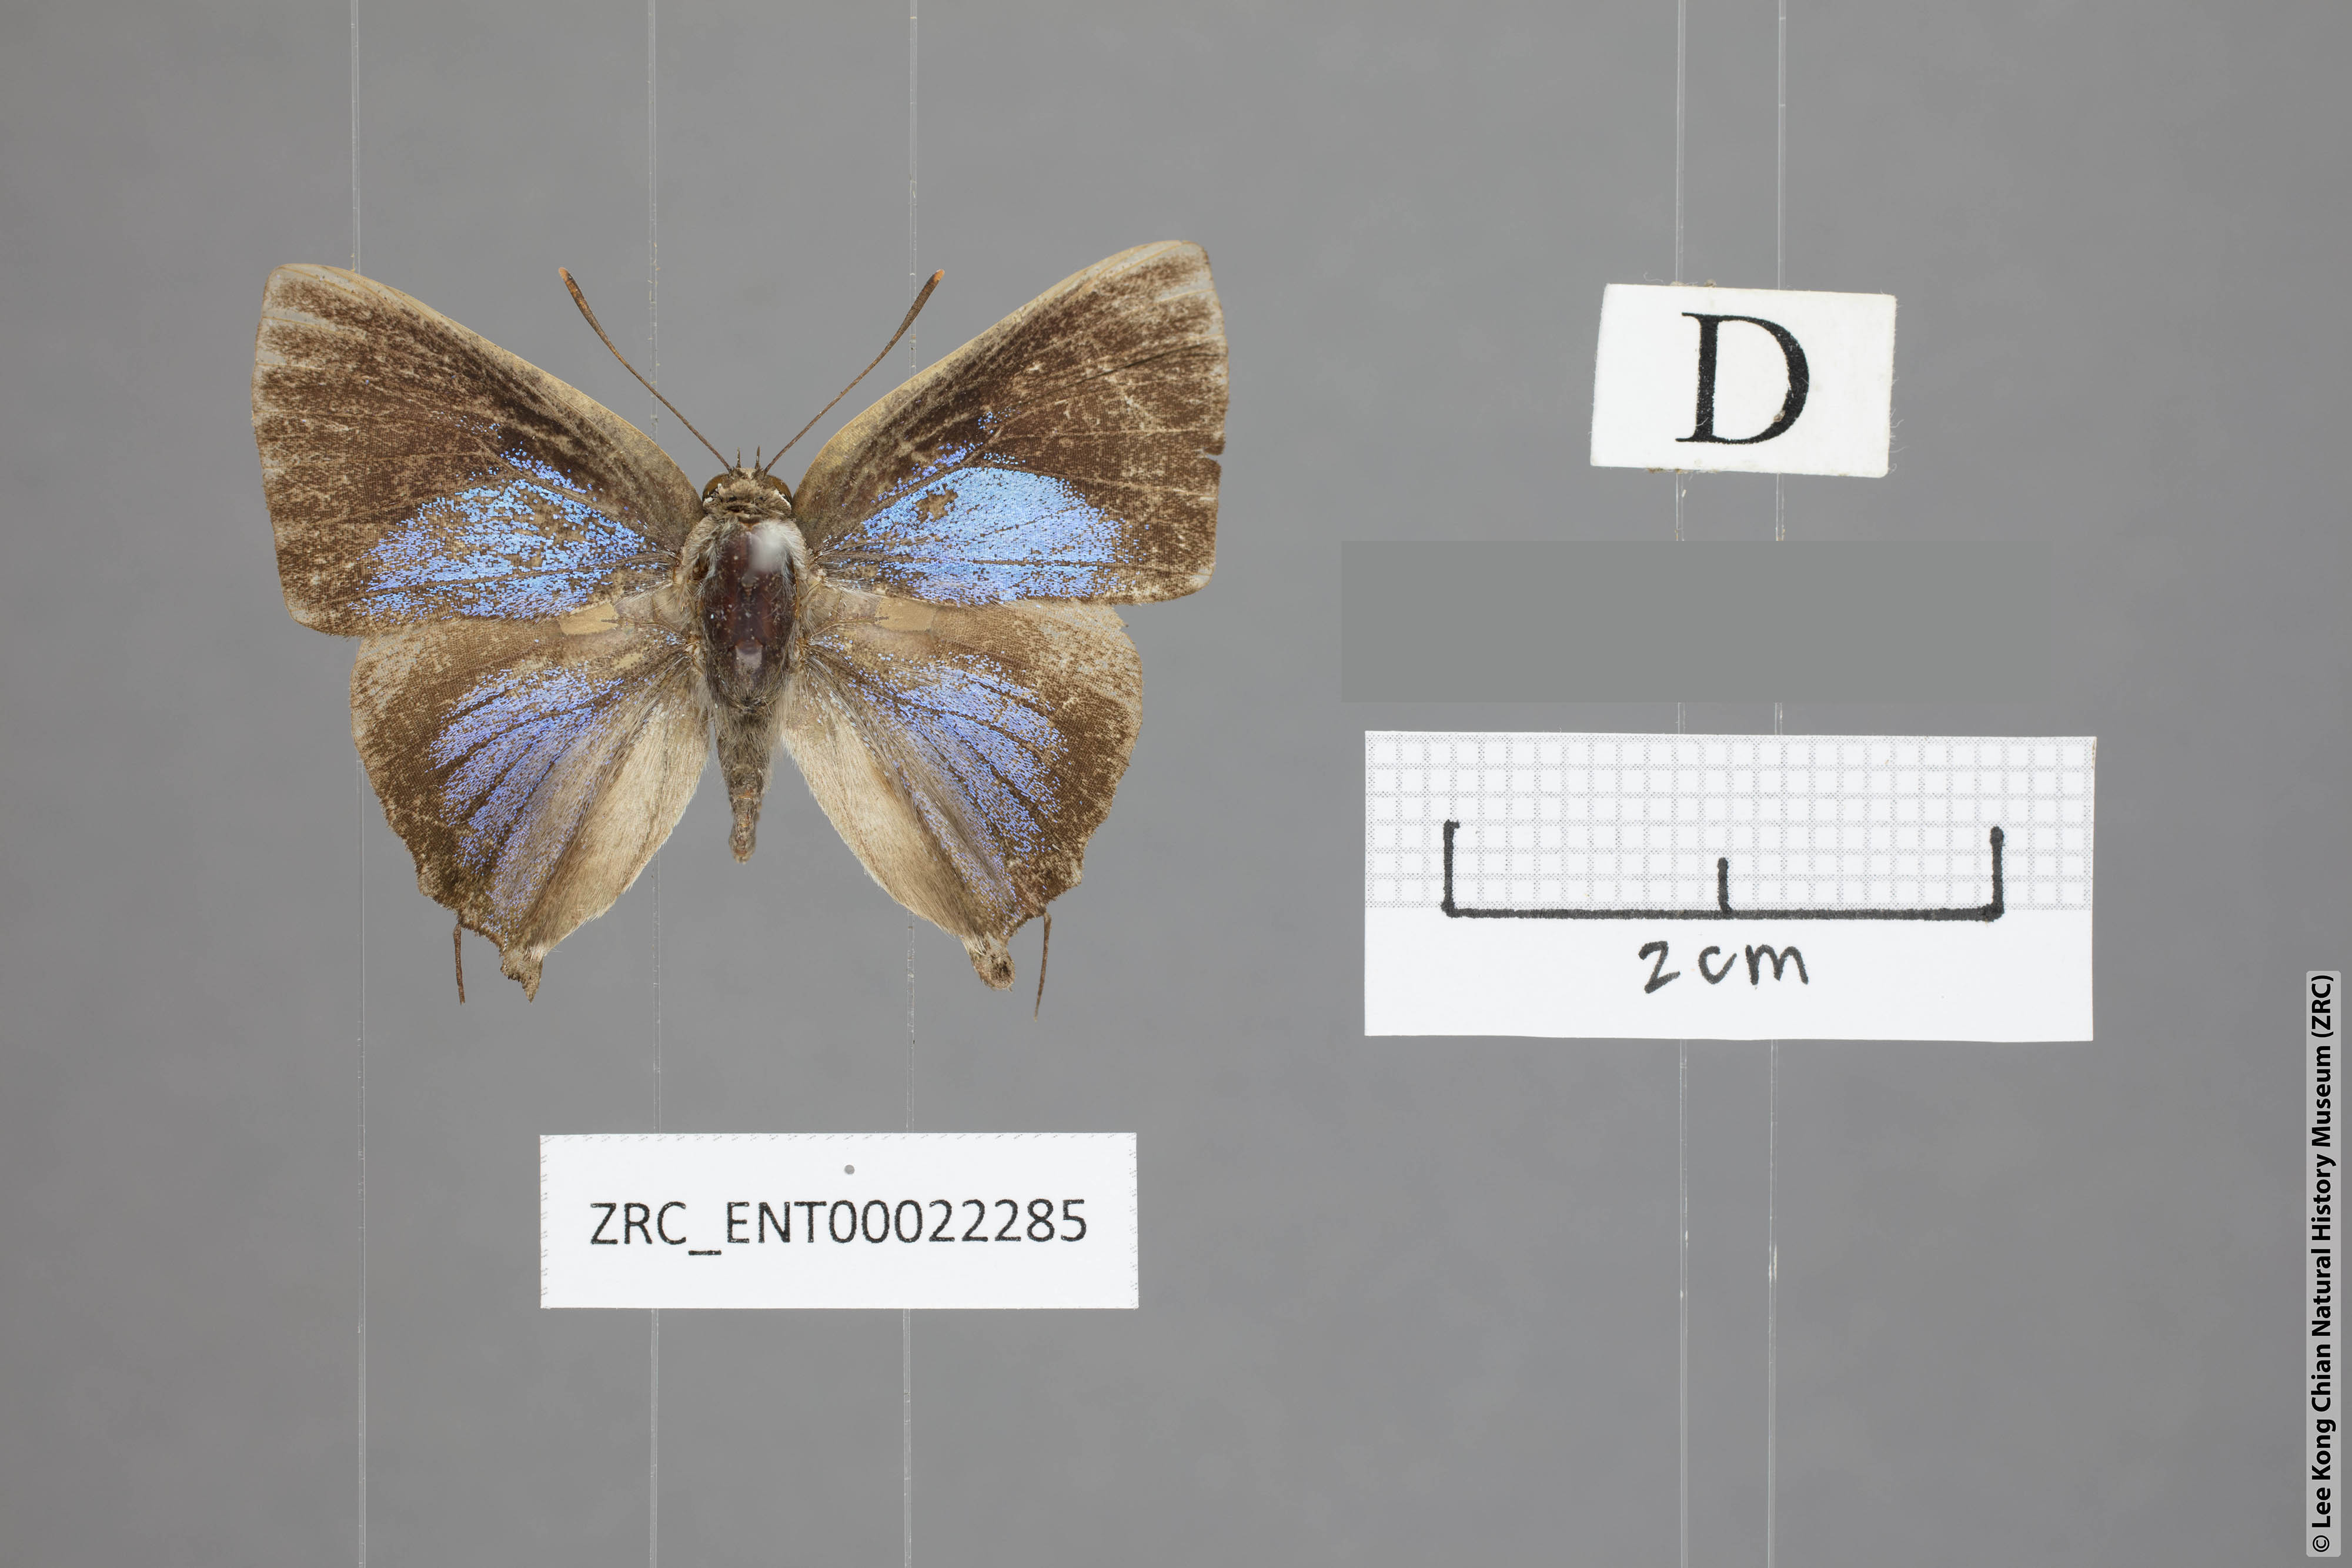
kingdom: Animalia
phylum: Arthropoda
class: Insecta
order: Lepidoptera
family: Lycaenidae
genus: Deudorix
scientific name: Deudorix smilis
